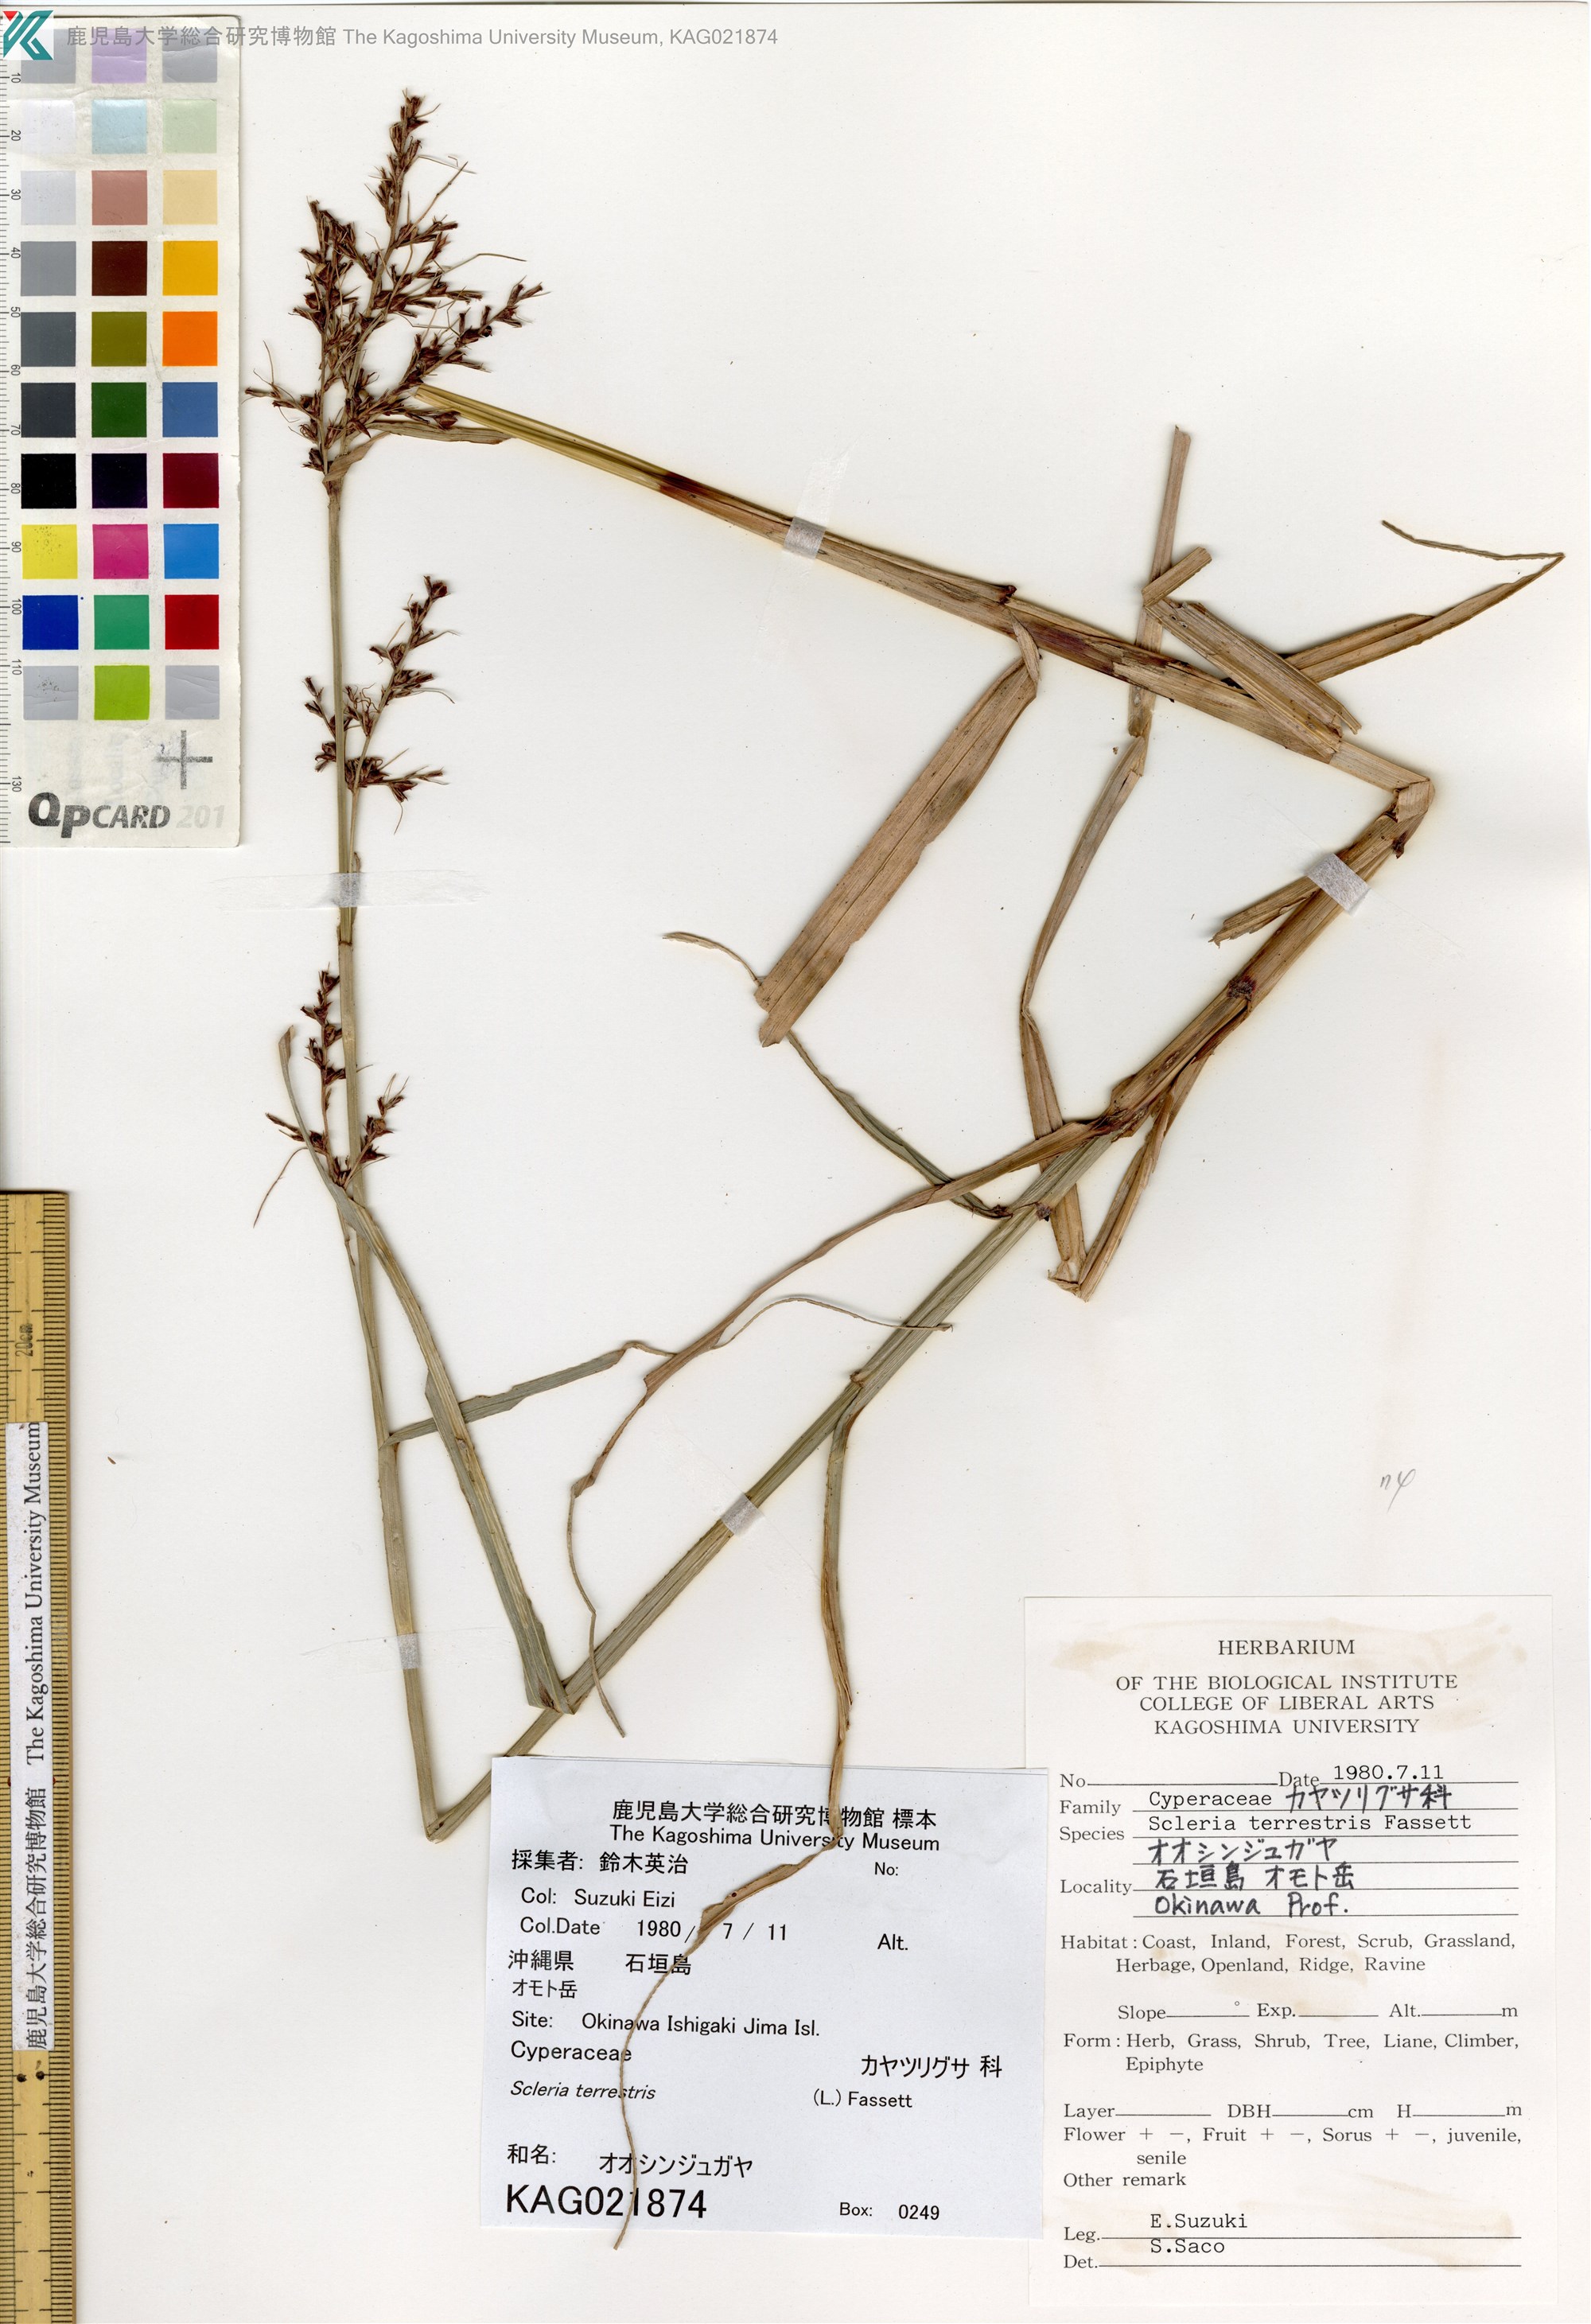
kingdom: Plantae
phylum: Tracheophyta
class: Liliopsida
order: Poales
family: Cyperaceae
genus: Scleria
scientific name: Scleria terrestris
